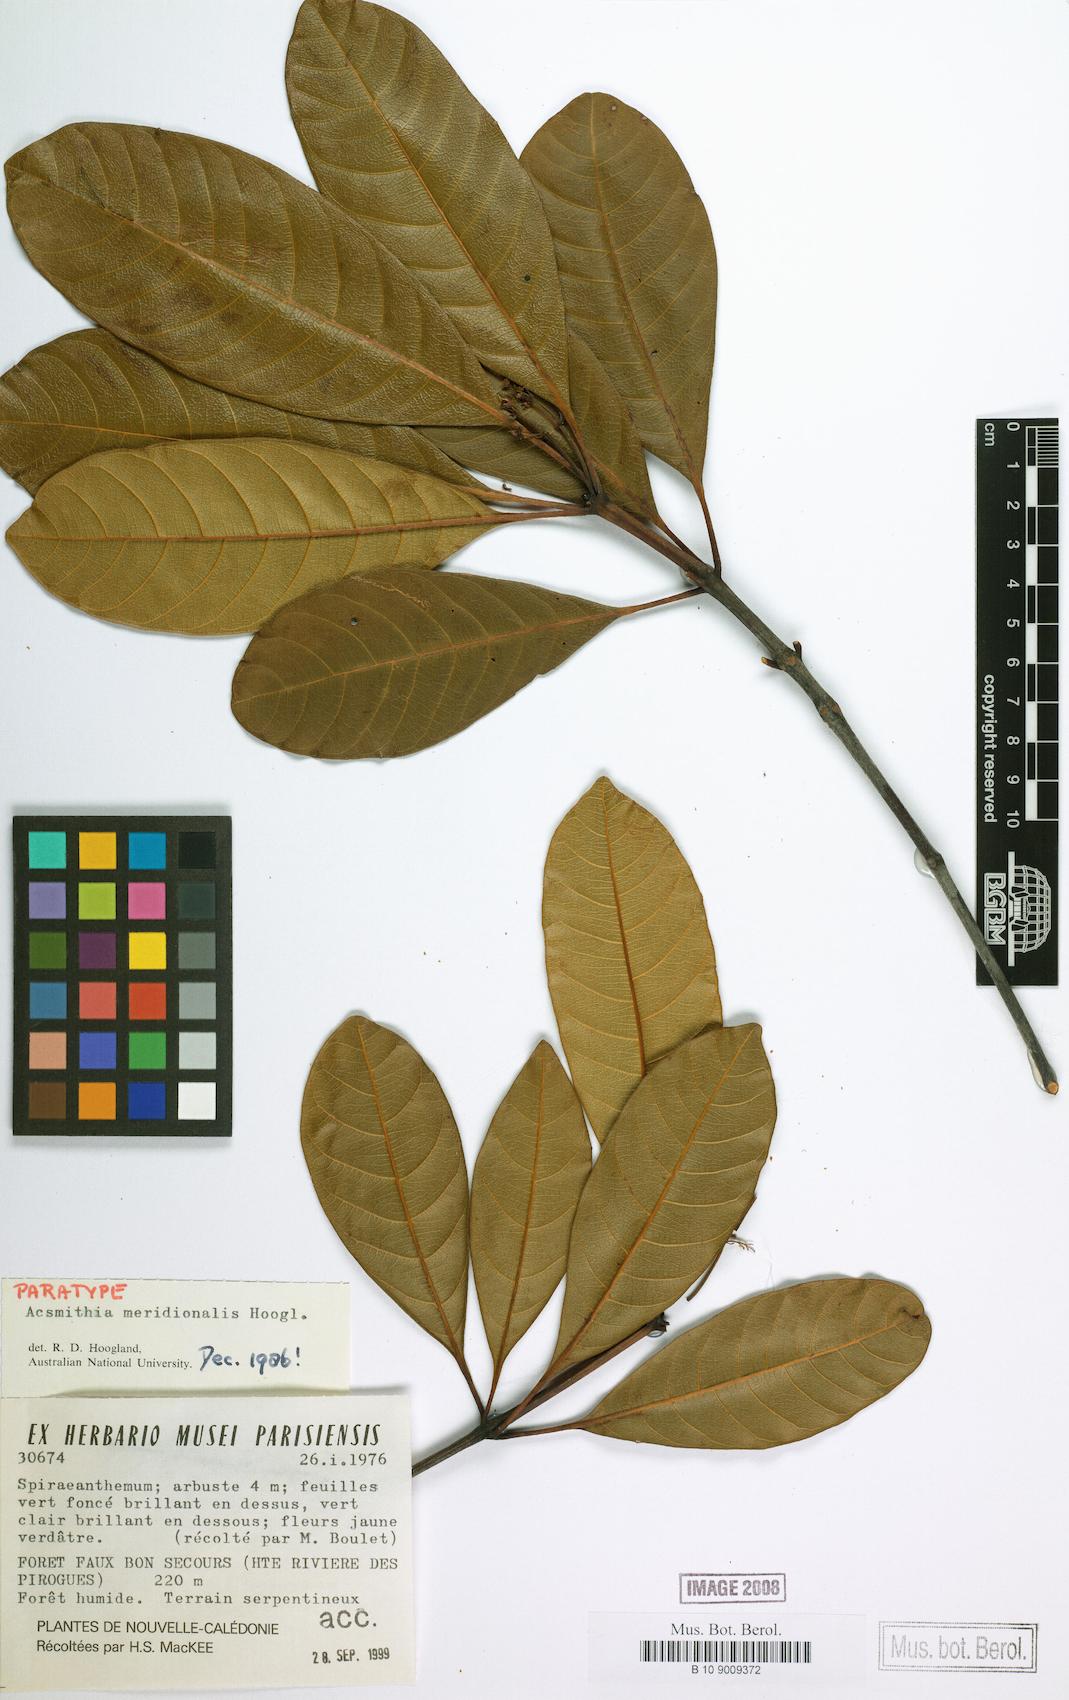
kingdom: Plantae
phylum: Tracheophyta
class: Magnoliopsida
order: Oxalidales
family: Cunoniaceae
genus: Spiraeanthemum
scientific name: Spiraeanthemum meridionale
